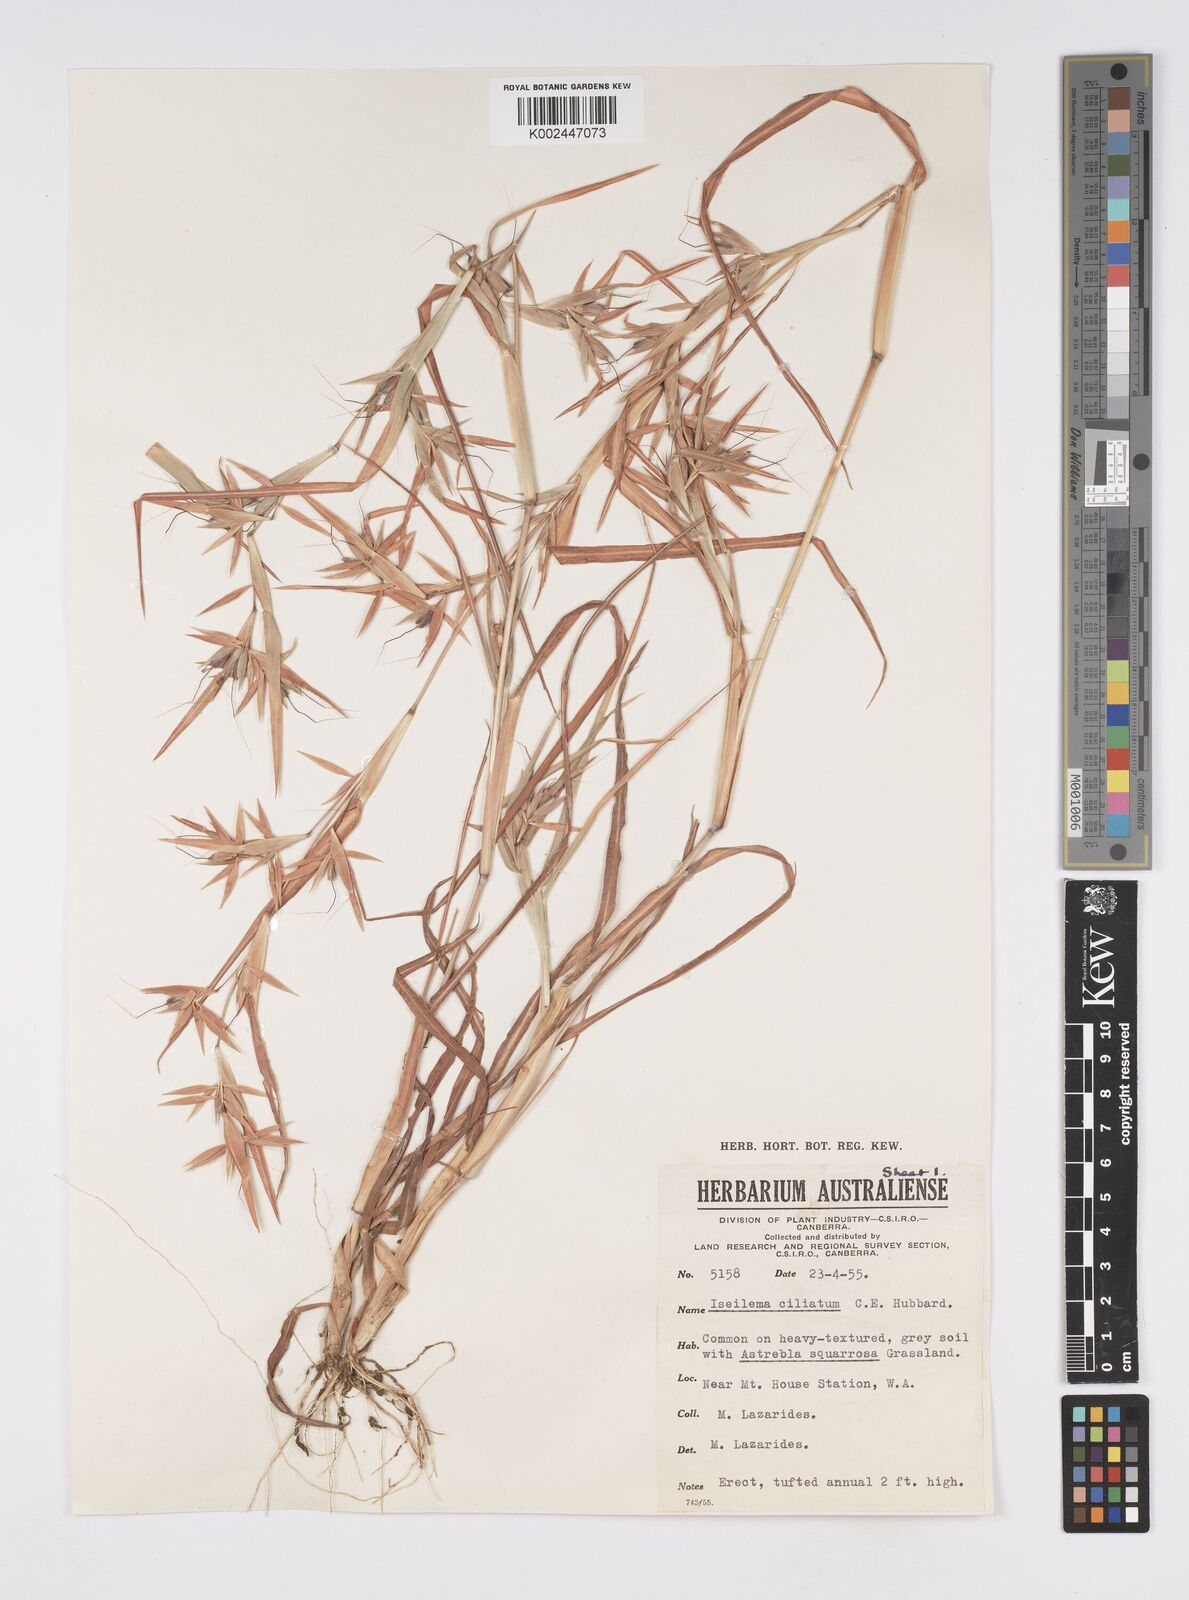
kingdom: Plantae
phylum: Tracheophyta
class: Liliopsida
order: Poales
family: Poaceae
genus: Iseilema
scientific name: Iseilema ciliatum
